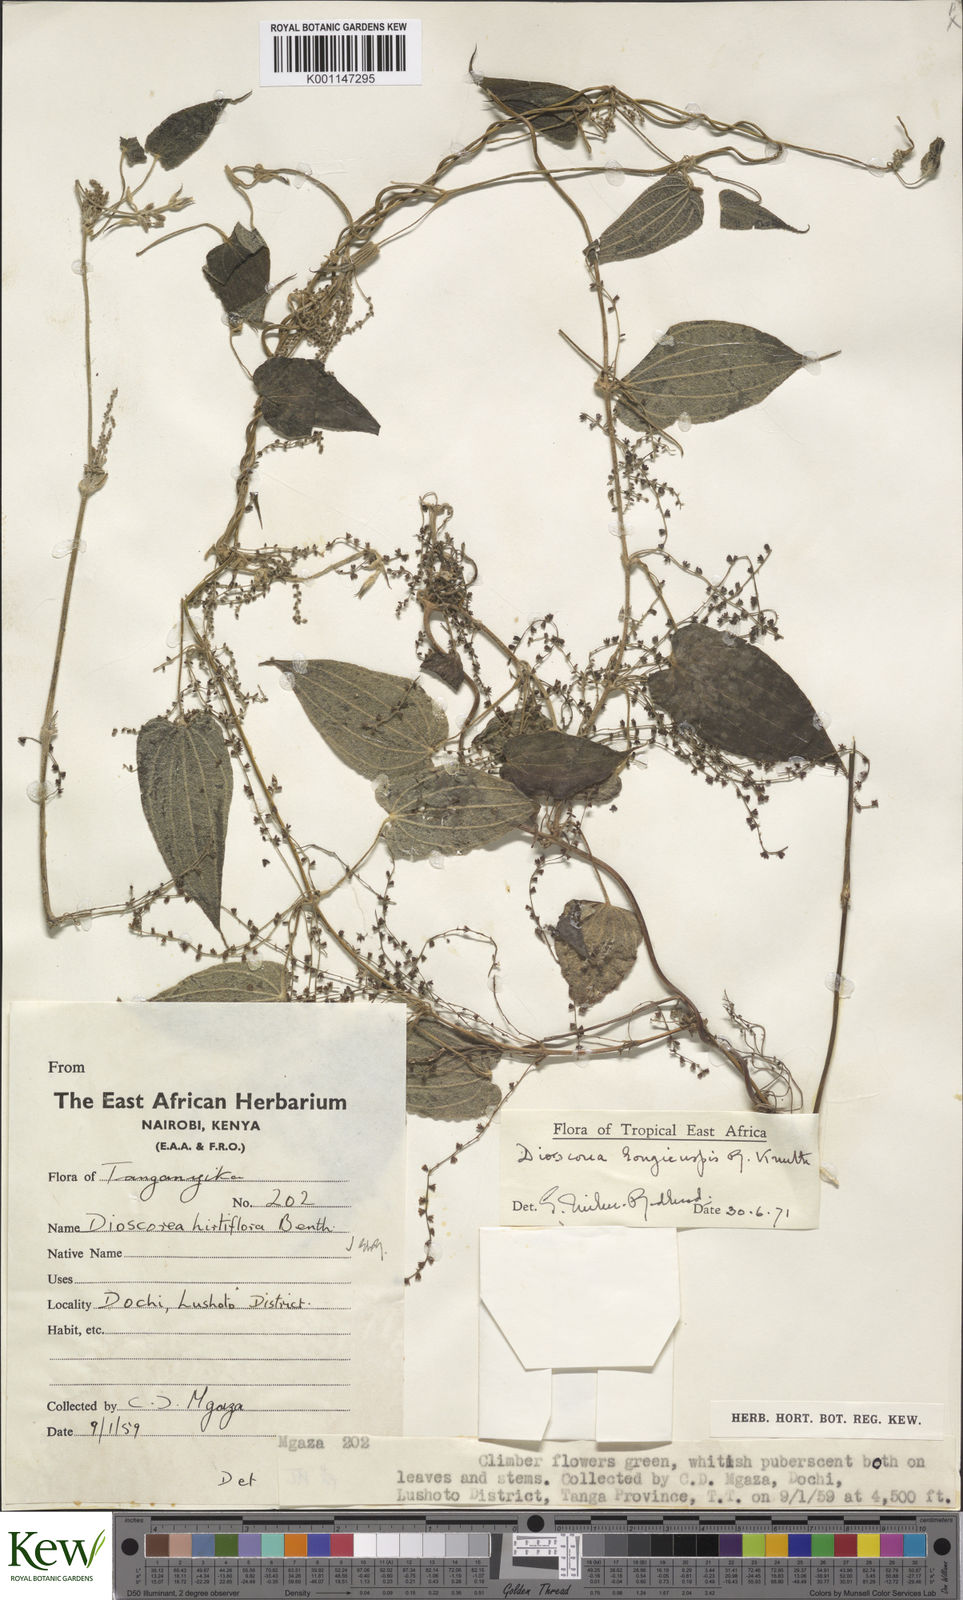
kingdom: Plantae
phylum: Tracheophyta
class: Liliopsida
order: Dioscoreales
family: Dioscoreaceae
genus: Dioscorea
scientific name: Dioscorea longicuspis
